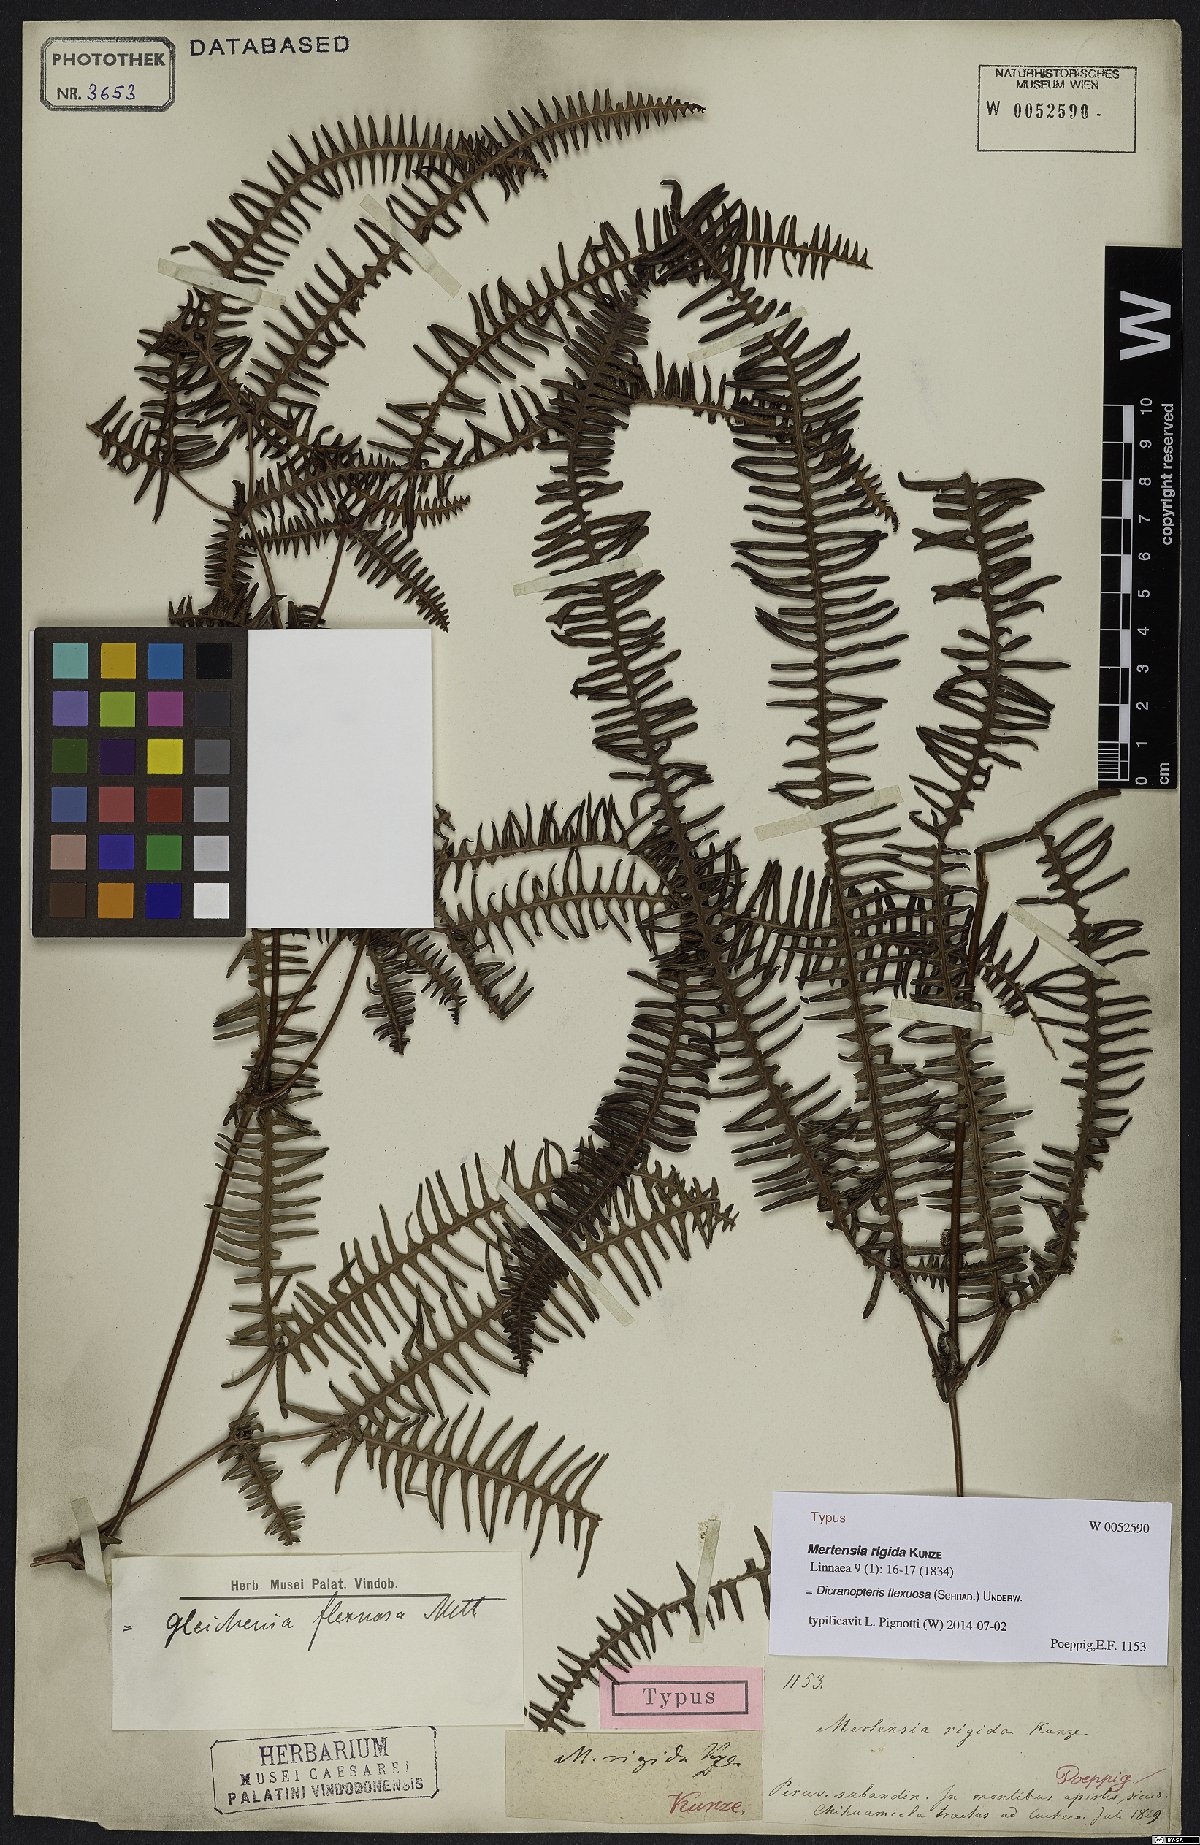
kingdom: Plantae
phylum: Tracheophyta
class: Polypodiopsida
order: Gleicheniales
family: Gleicheniaceae
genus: Dicranopteris
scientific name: Dicranopteris flexuosa
